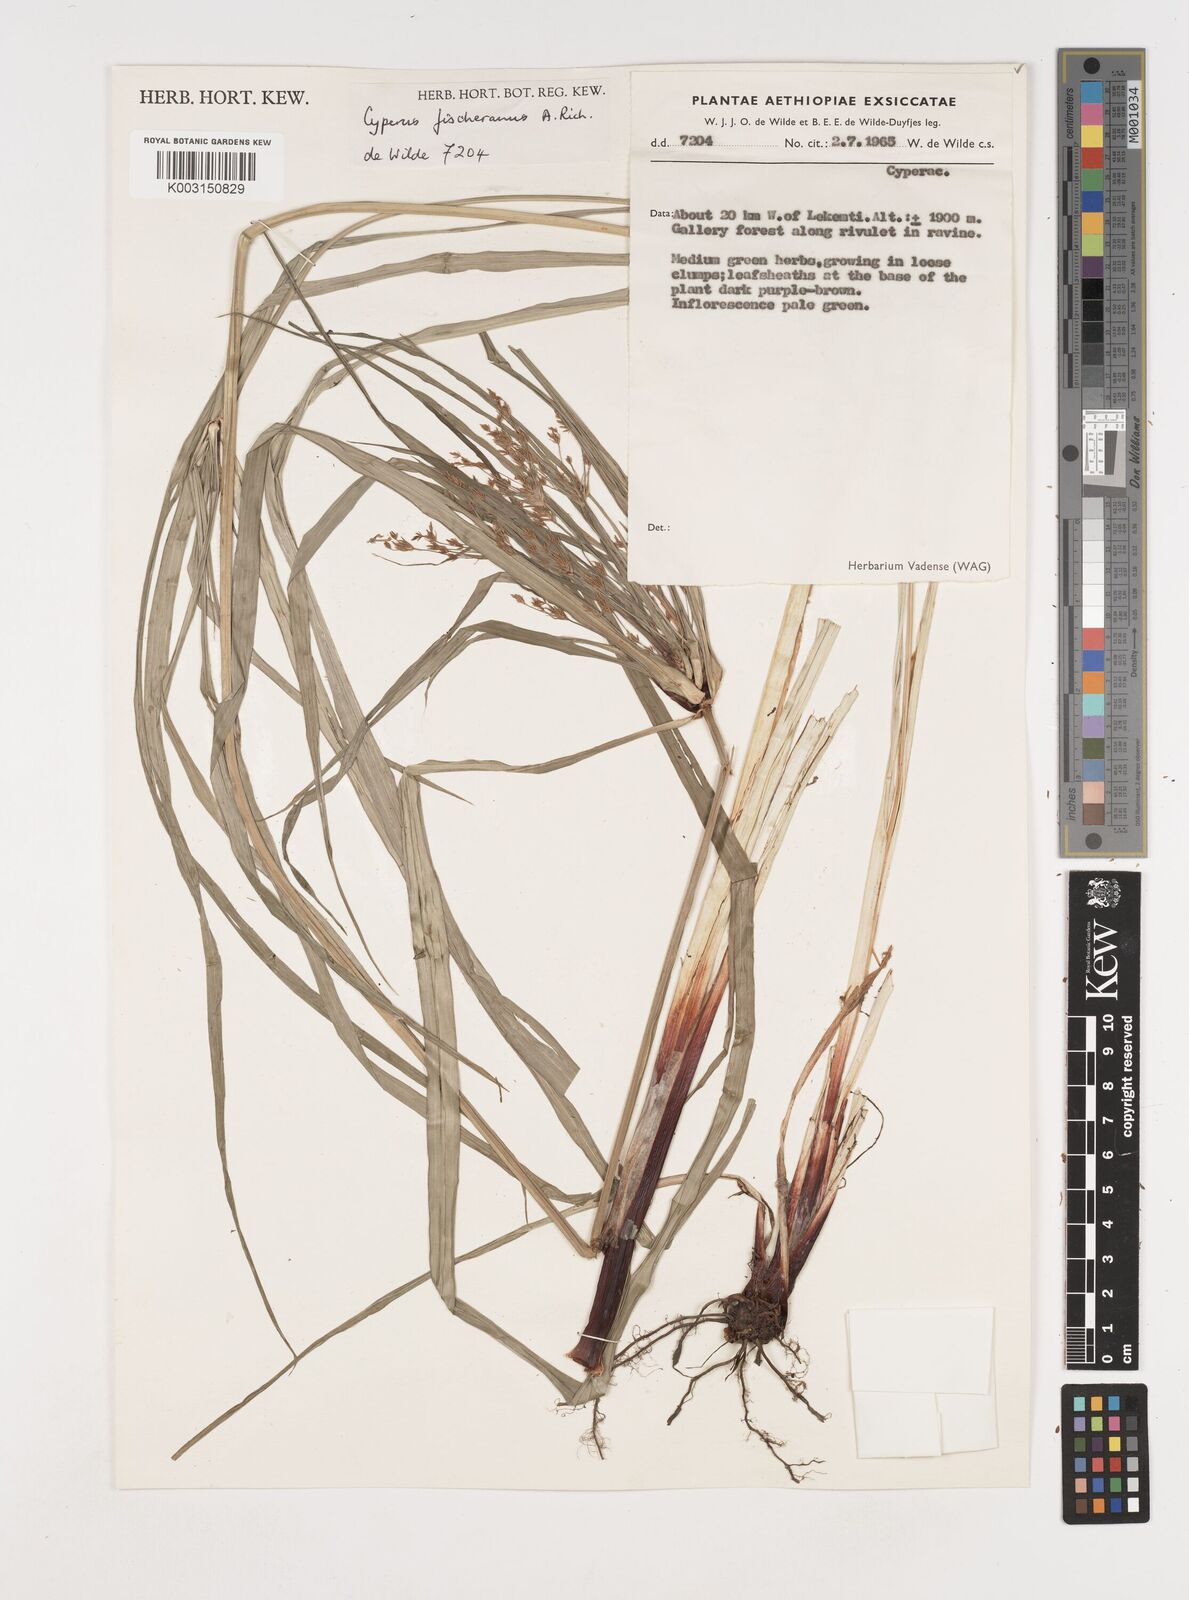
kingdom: Plantae
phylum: Tracheophyta
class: Liliopsida
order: Poales
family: Cyperaceae
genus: Cyperus
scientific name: Cyperus fischerianus
